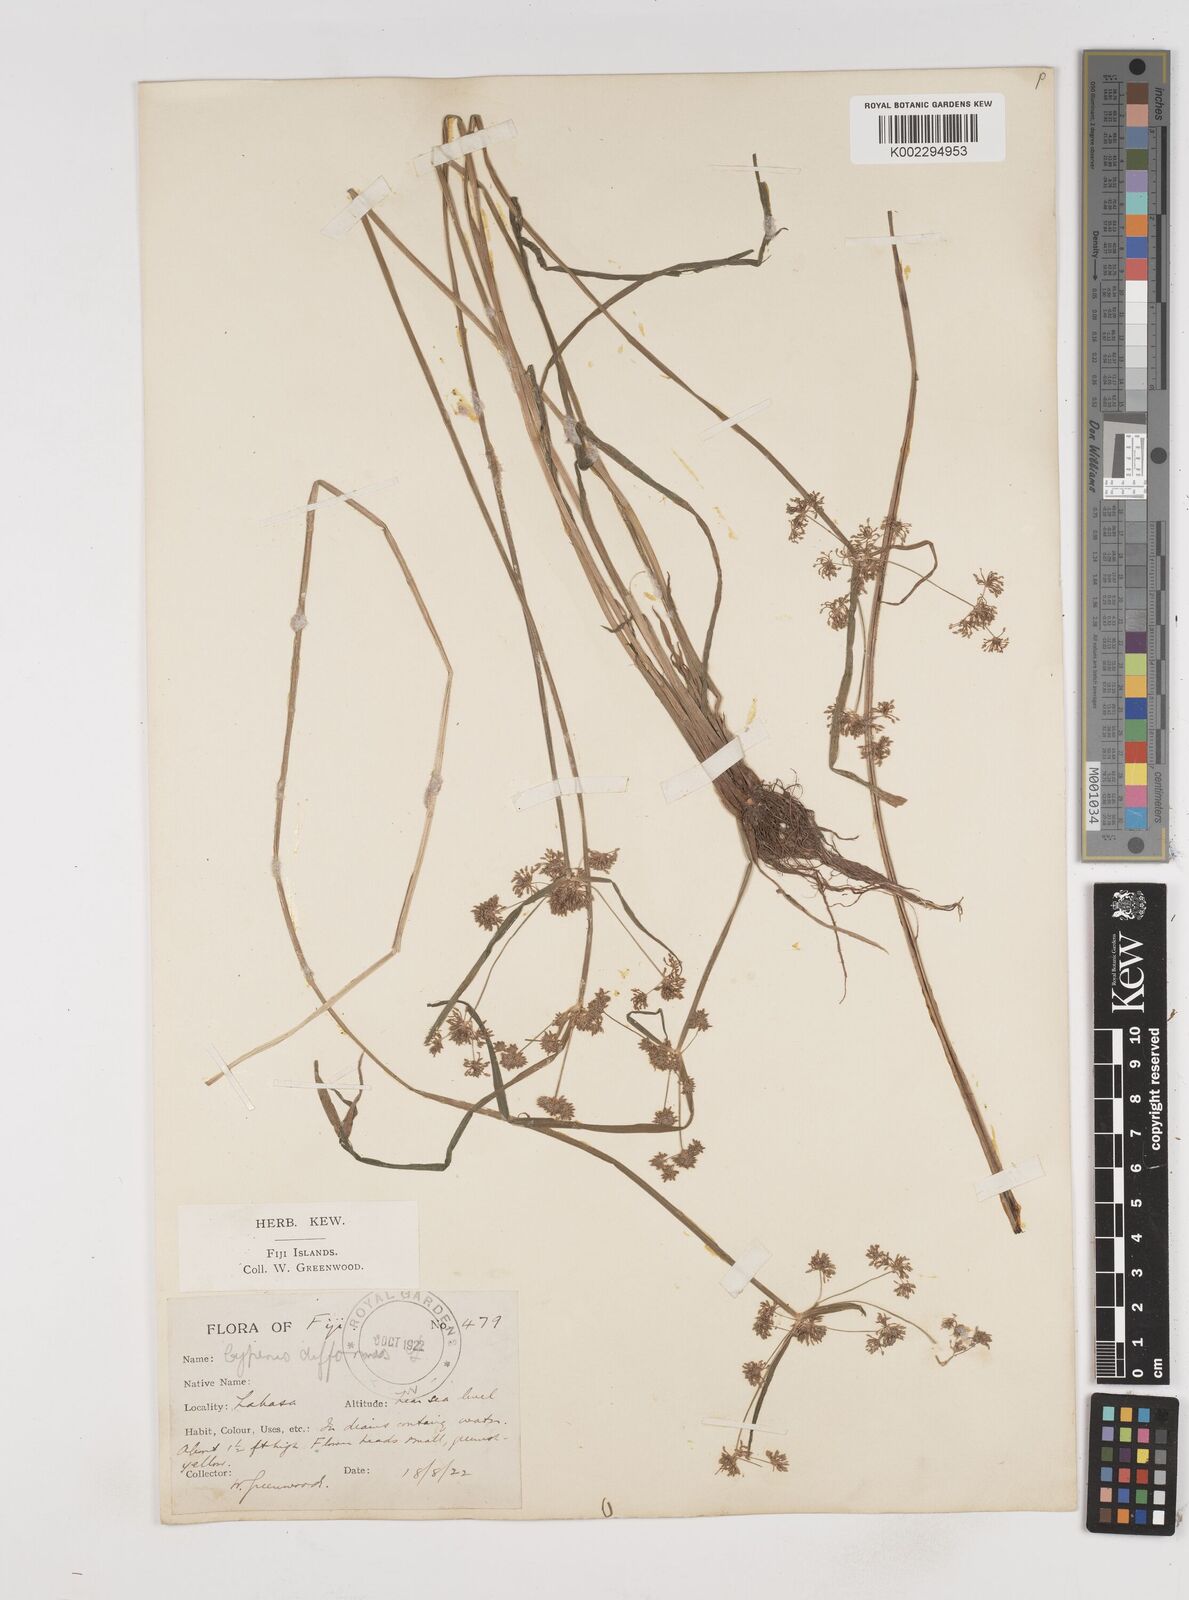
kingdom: Plantae
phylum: Tracheophyta
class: Liliopsida
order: Poales
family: Cyperaceae
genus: Cyperus
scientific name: Cyperus difformis
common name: Variable flatsedge
